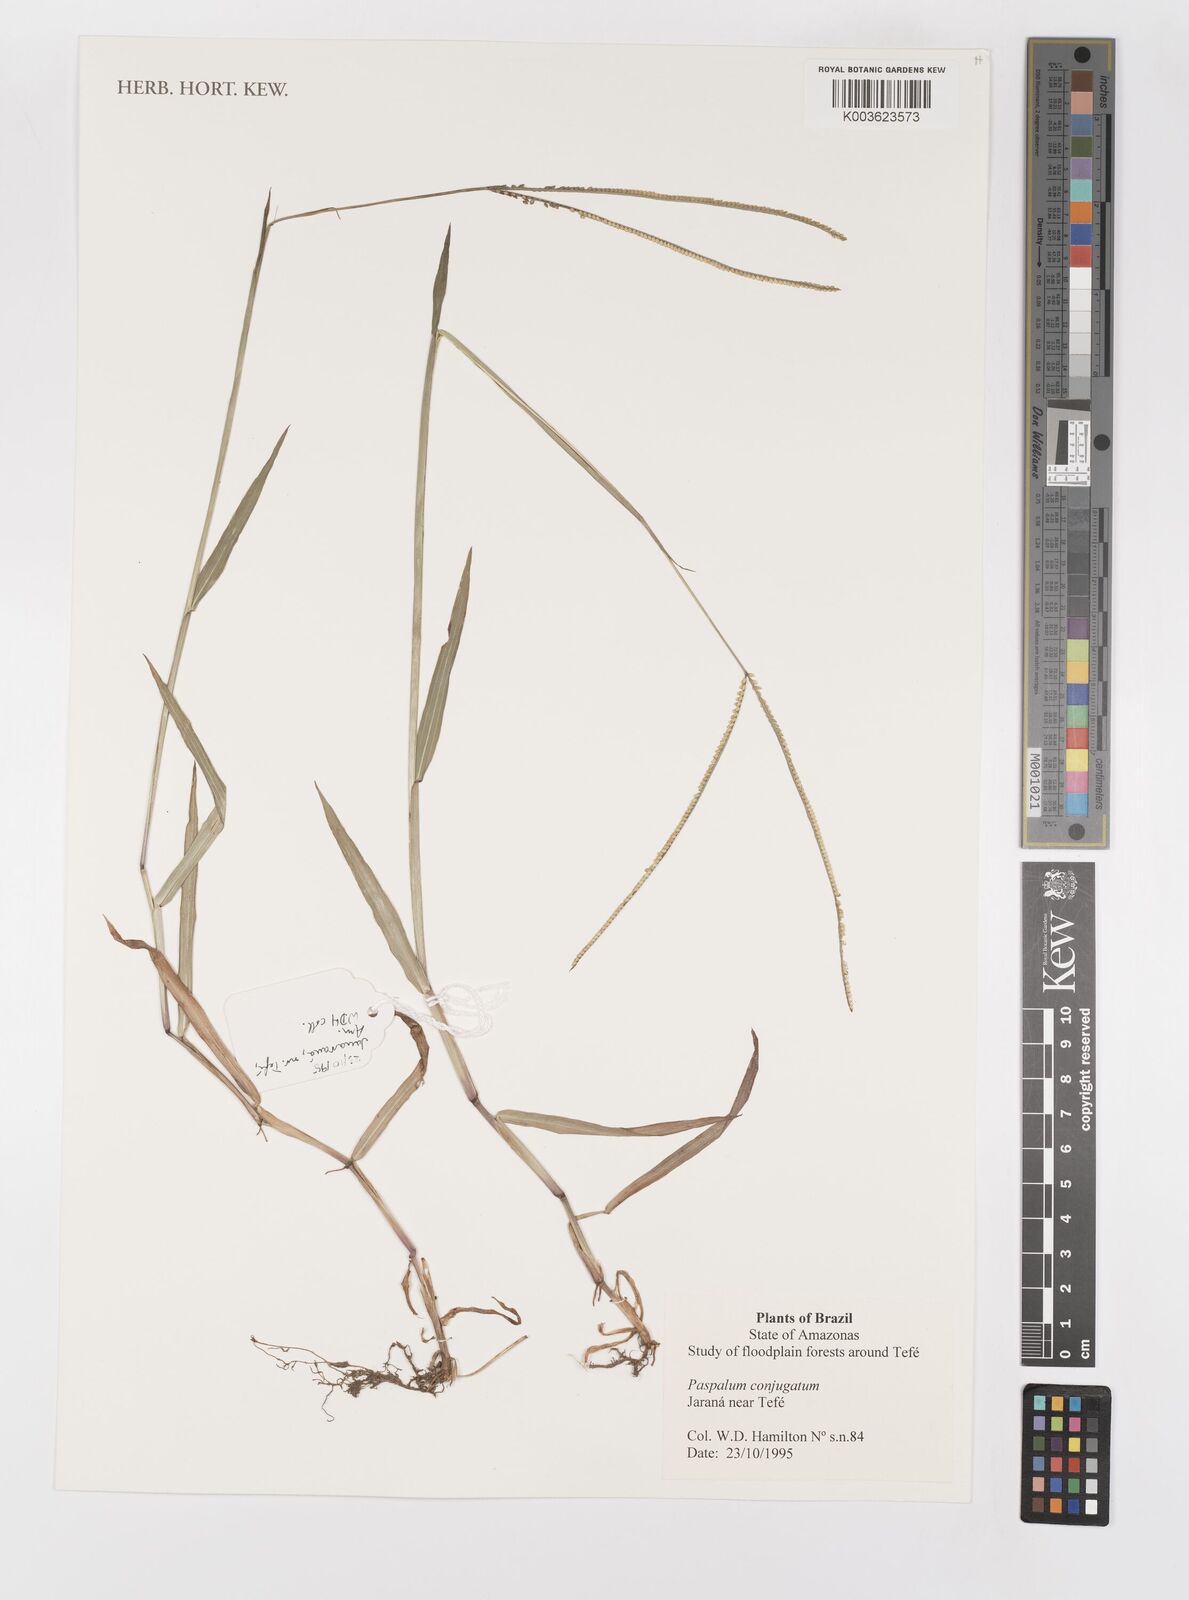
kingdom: Plantae
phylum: Tracheophyta
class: Liliopsida
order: Poales
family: Poaceae
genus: Paspalum
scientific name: Paspalum conjugatum
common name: Hilograss
